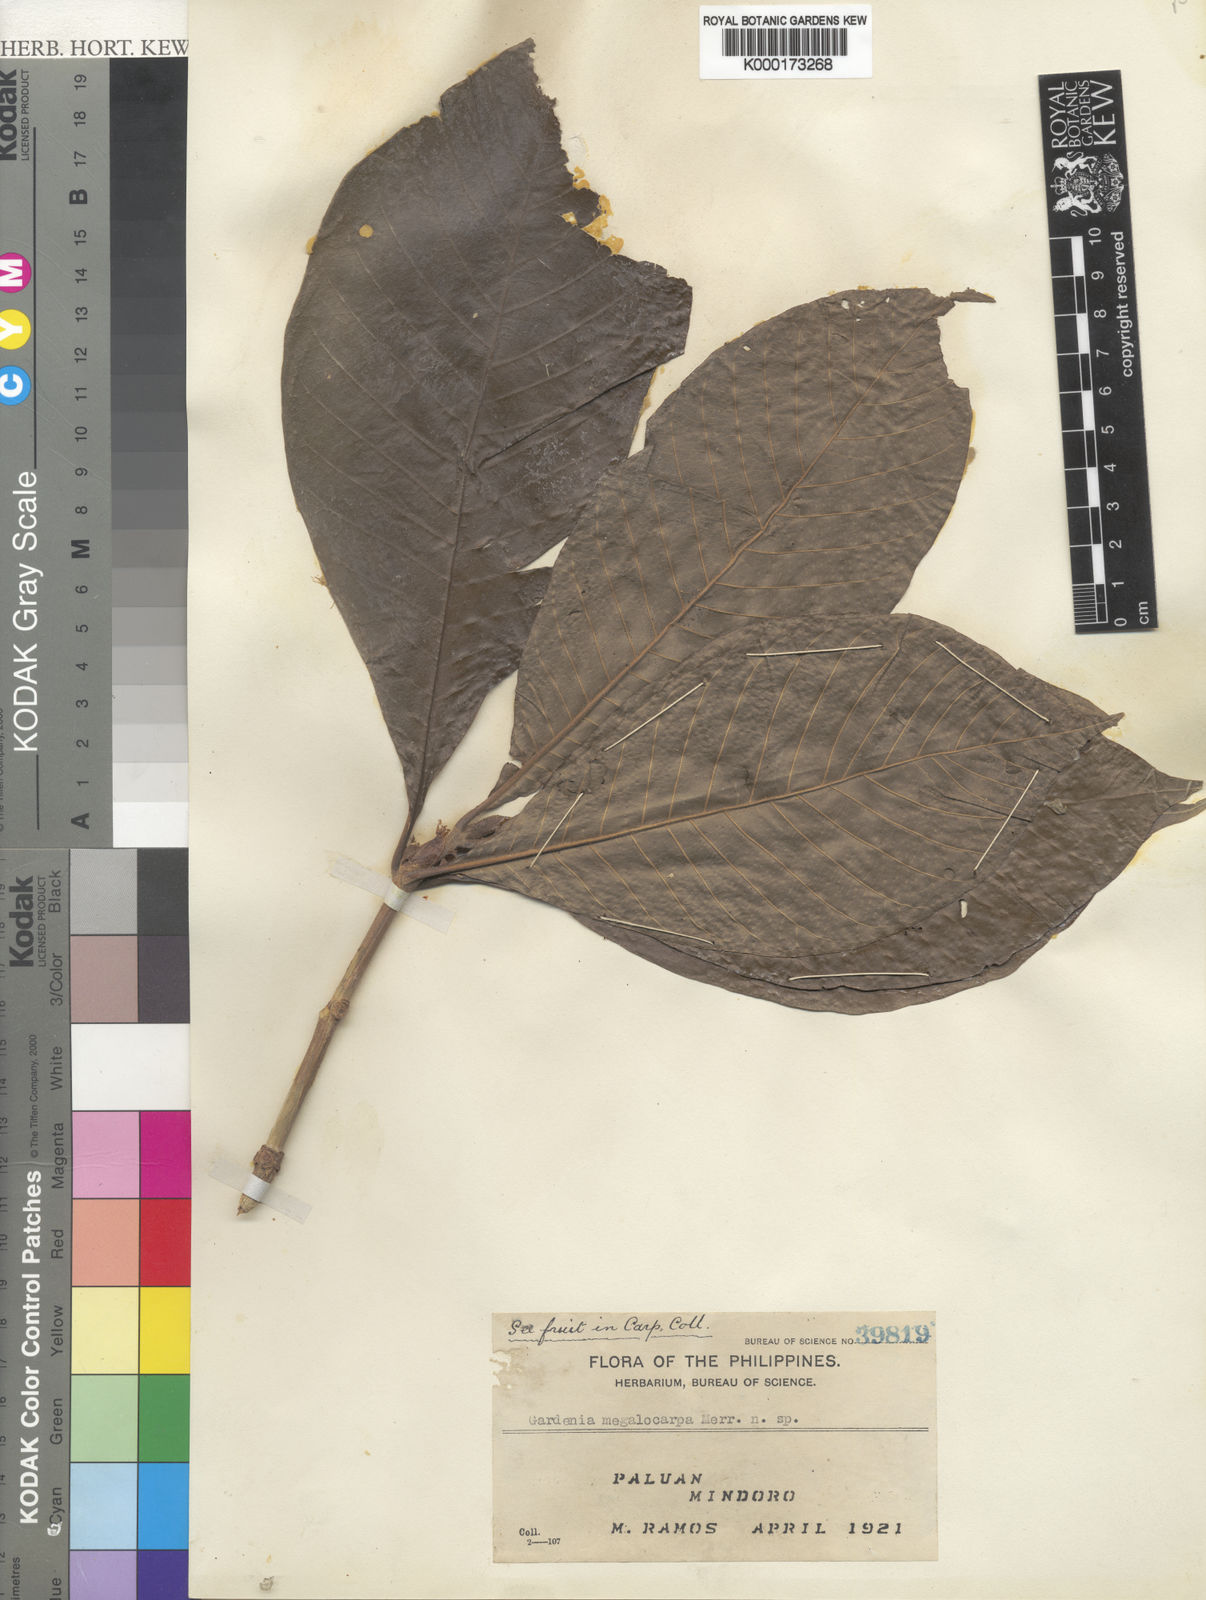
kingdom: Plantae
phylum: Tracheophyta
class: Magnoliopsida
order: Gentianales
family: Rubiaceae
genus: Gardenia
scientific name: Gardenia barnesii
